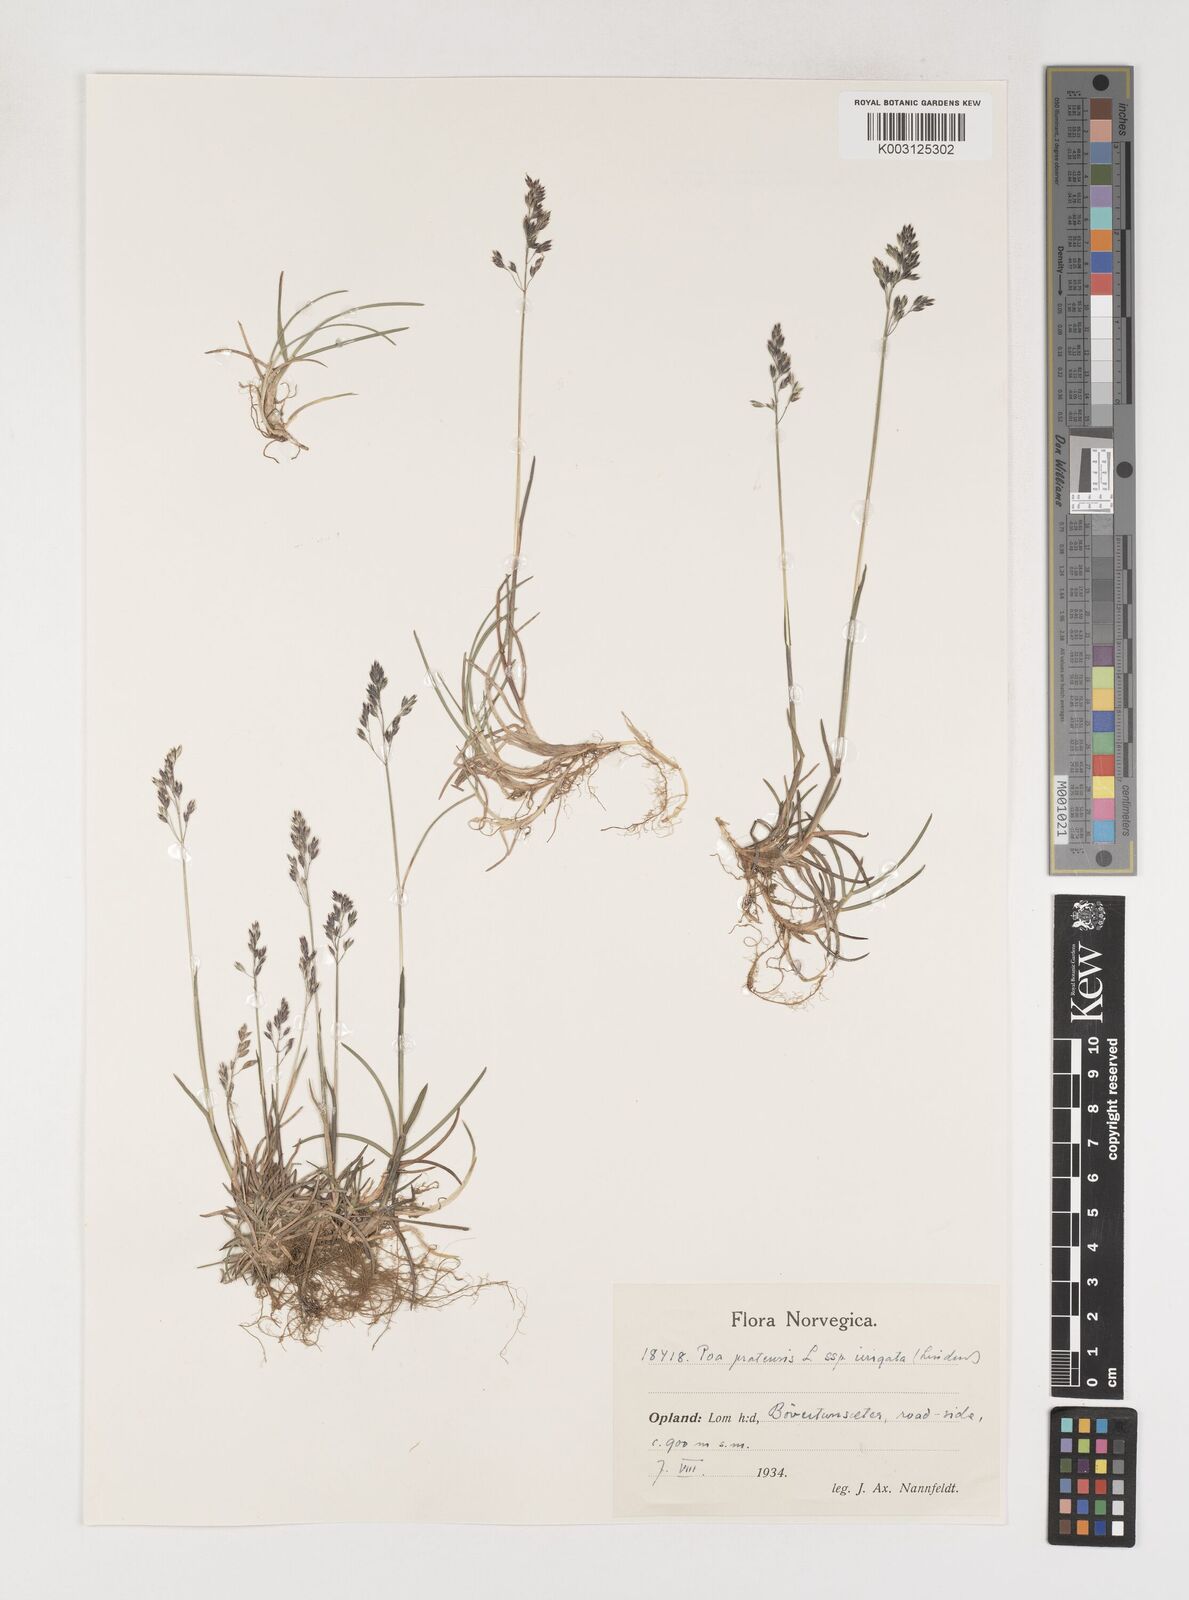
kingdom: Plantae
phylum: Tracheophyta
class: Liliopsida
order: Poales
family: Poaceae
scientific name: Poaceae
